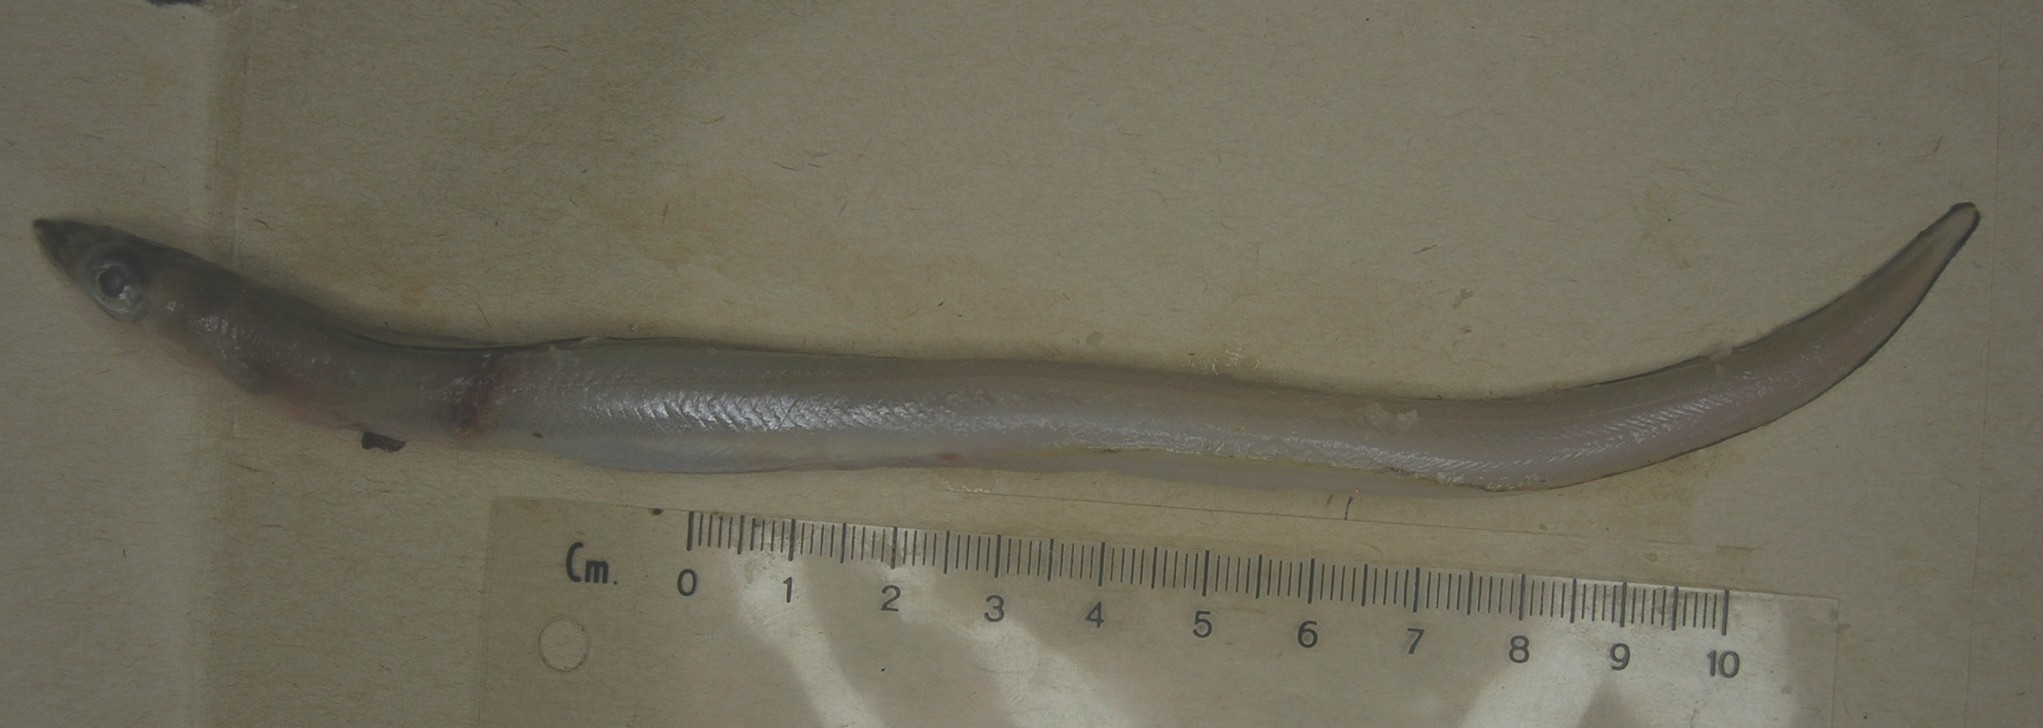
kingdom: Animalia
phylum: Chordata
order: Anguilliformes
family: Congridae
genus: Gorgasia
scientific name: Gorgasia
